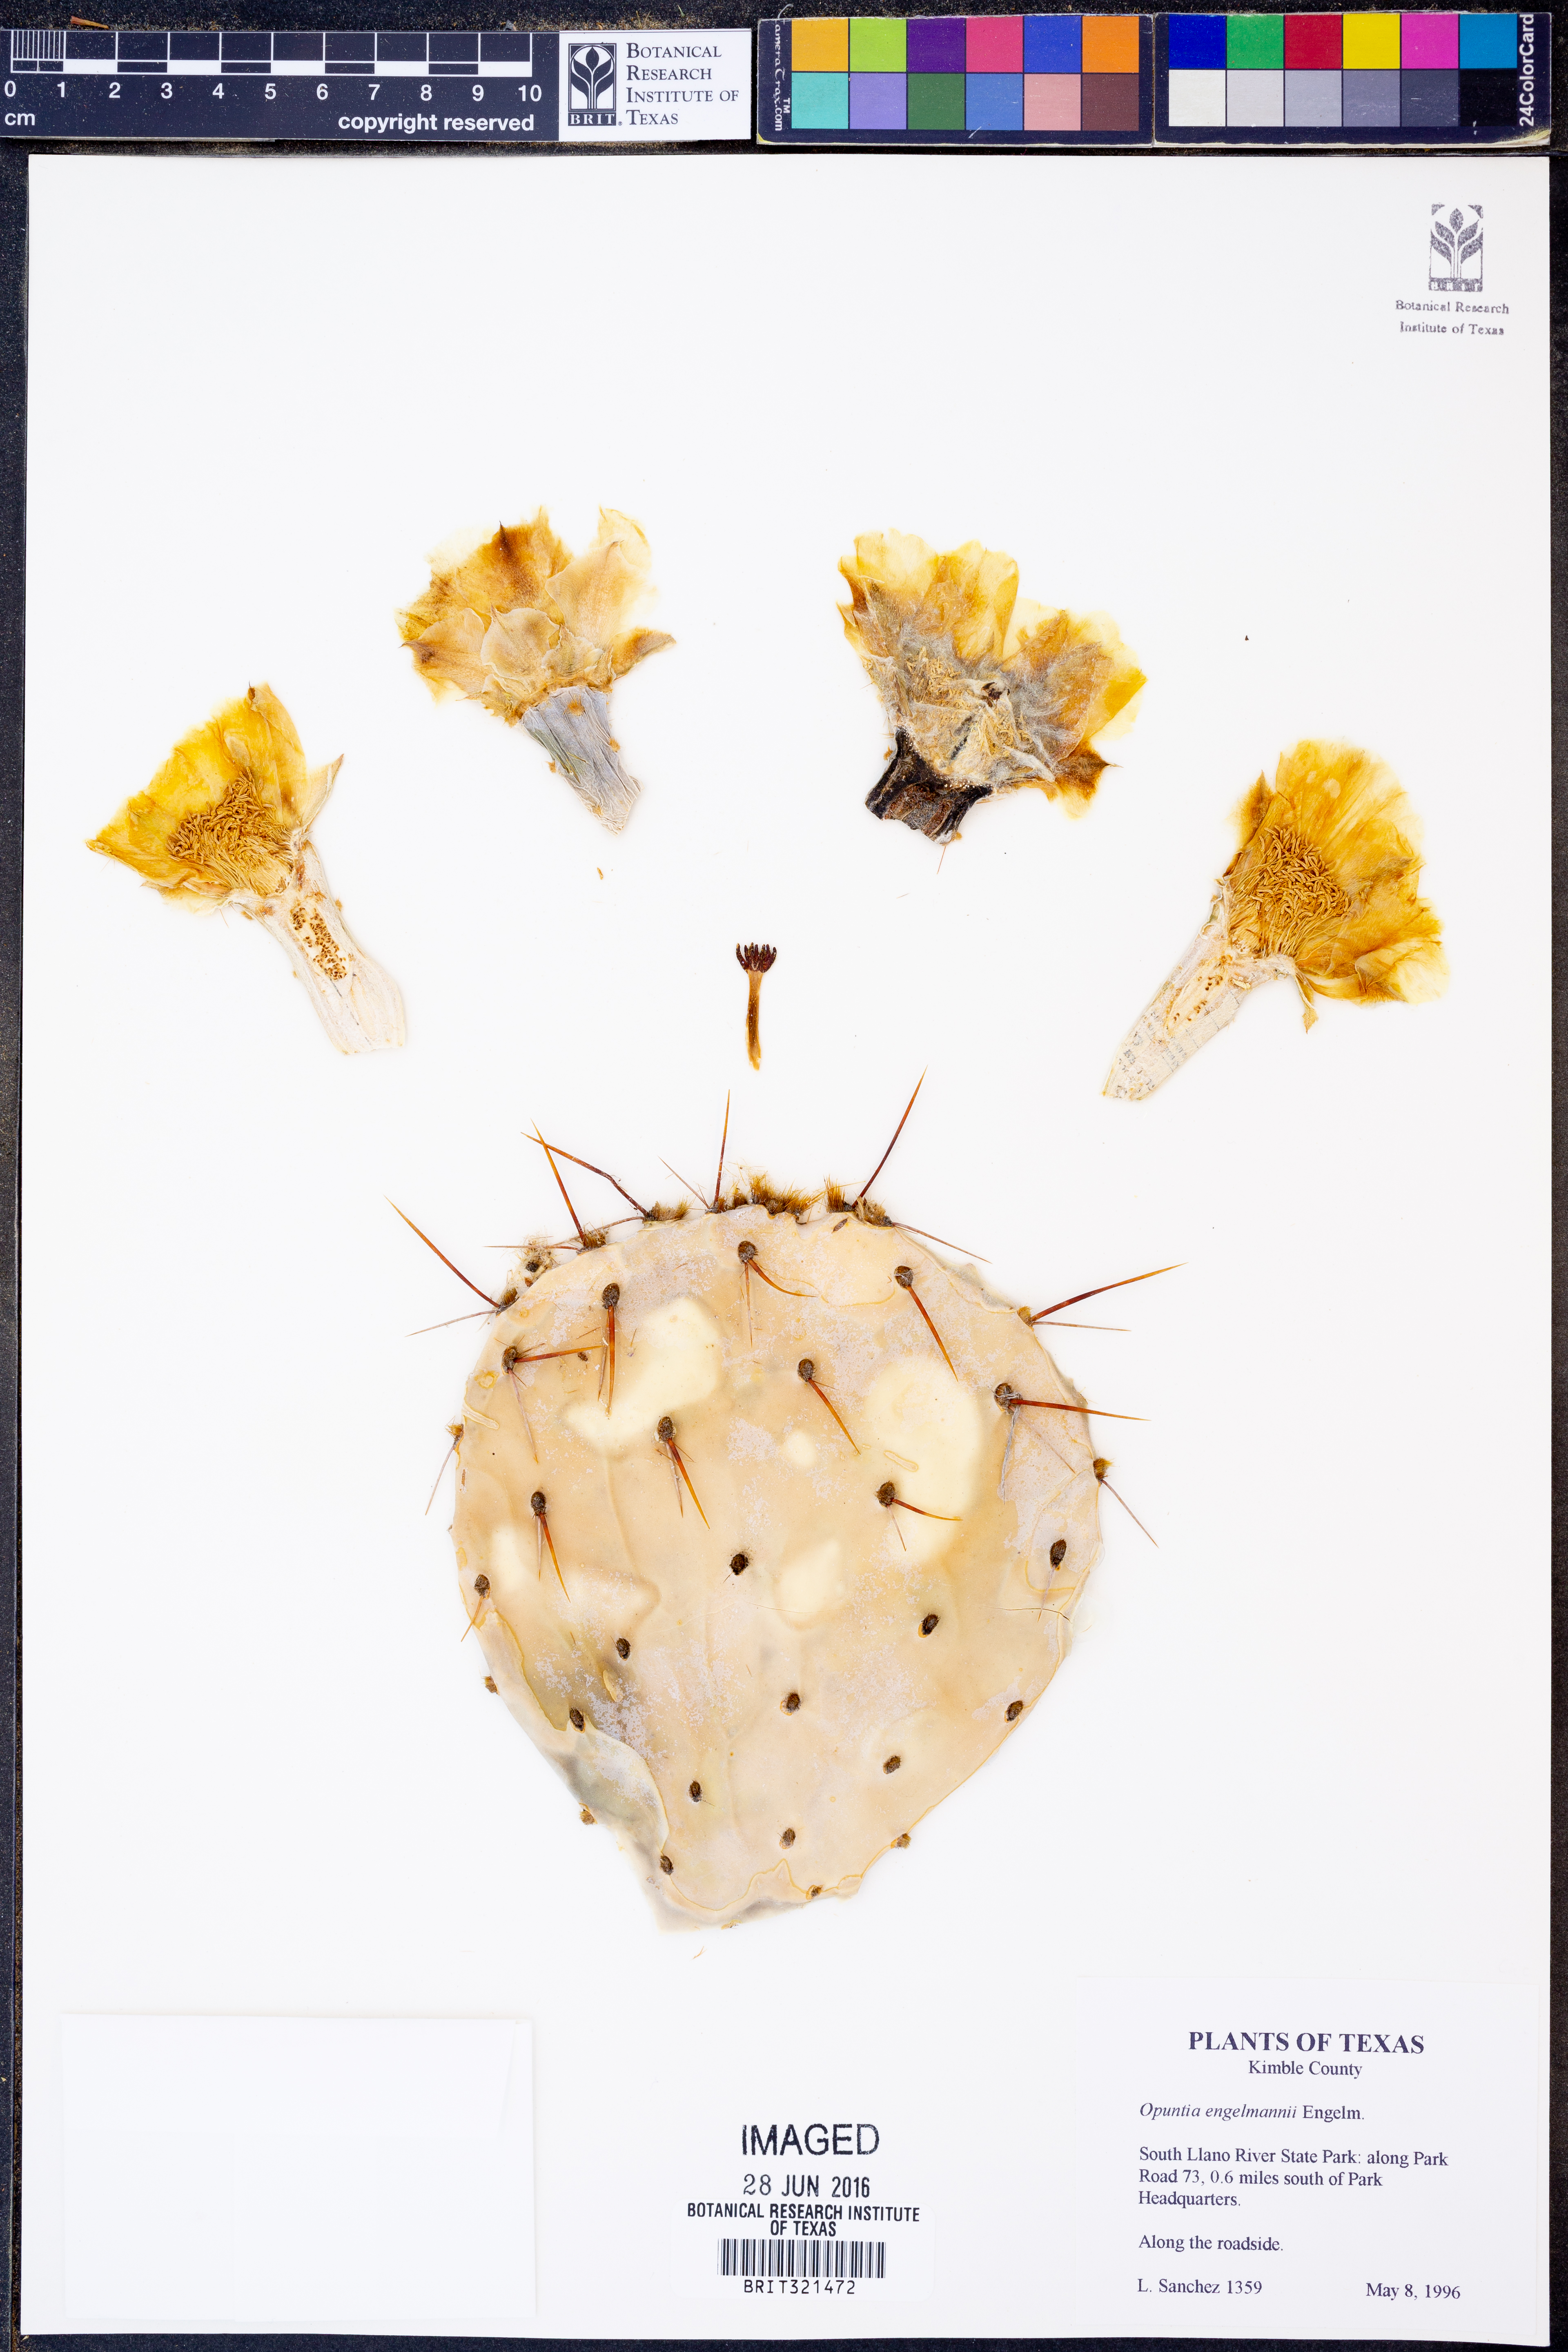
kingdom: Plantae
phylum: Tracheophyta
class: Magnoliopsida
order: Caryophyllales
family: Cactaceae
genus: Opuntia
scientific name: Opuntia engelmannii
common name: Cactus-apple
